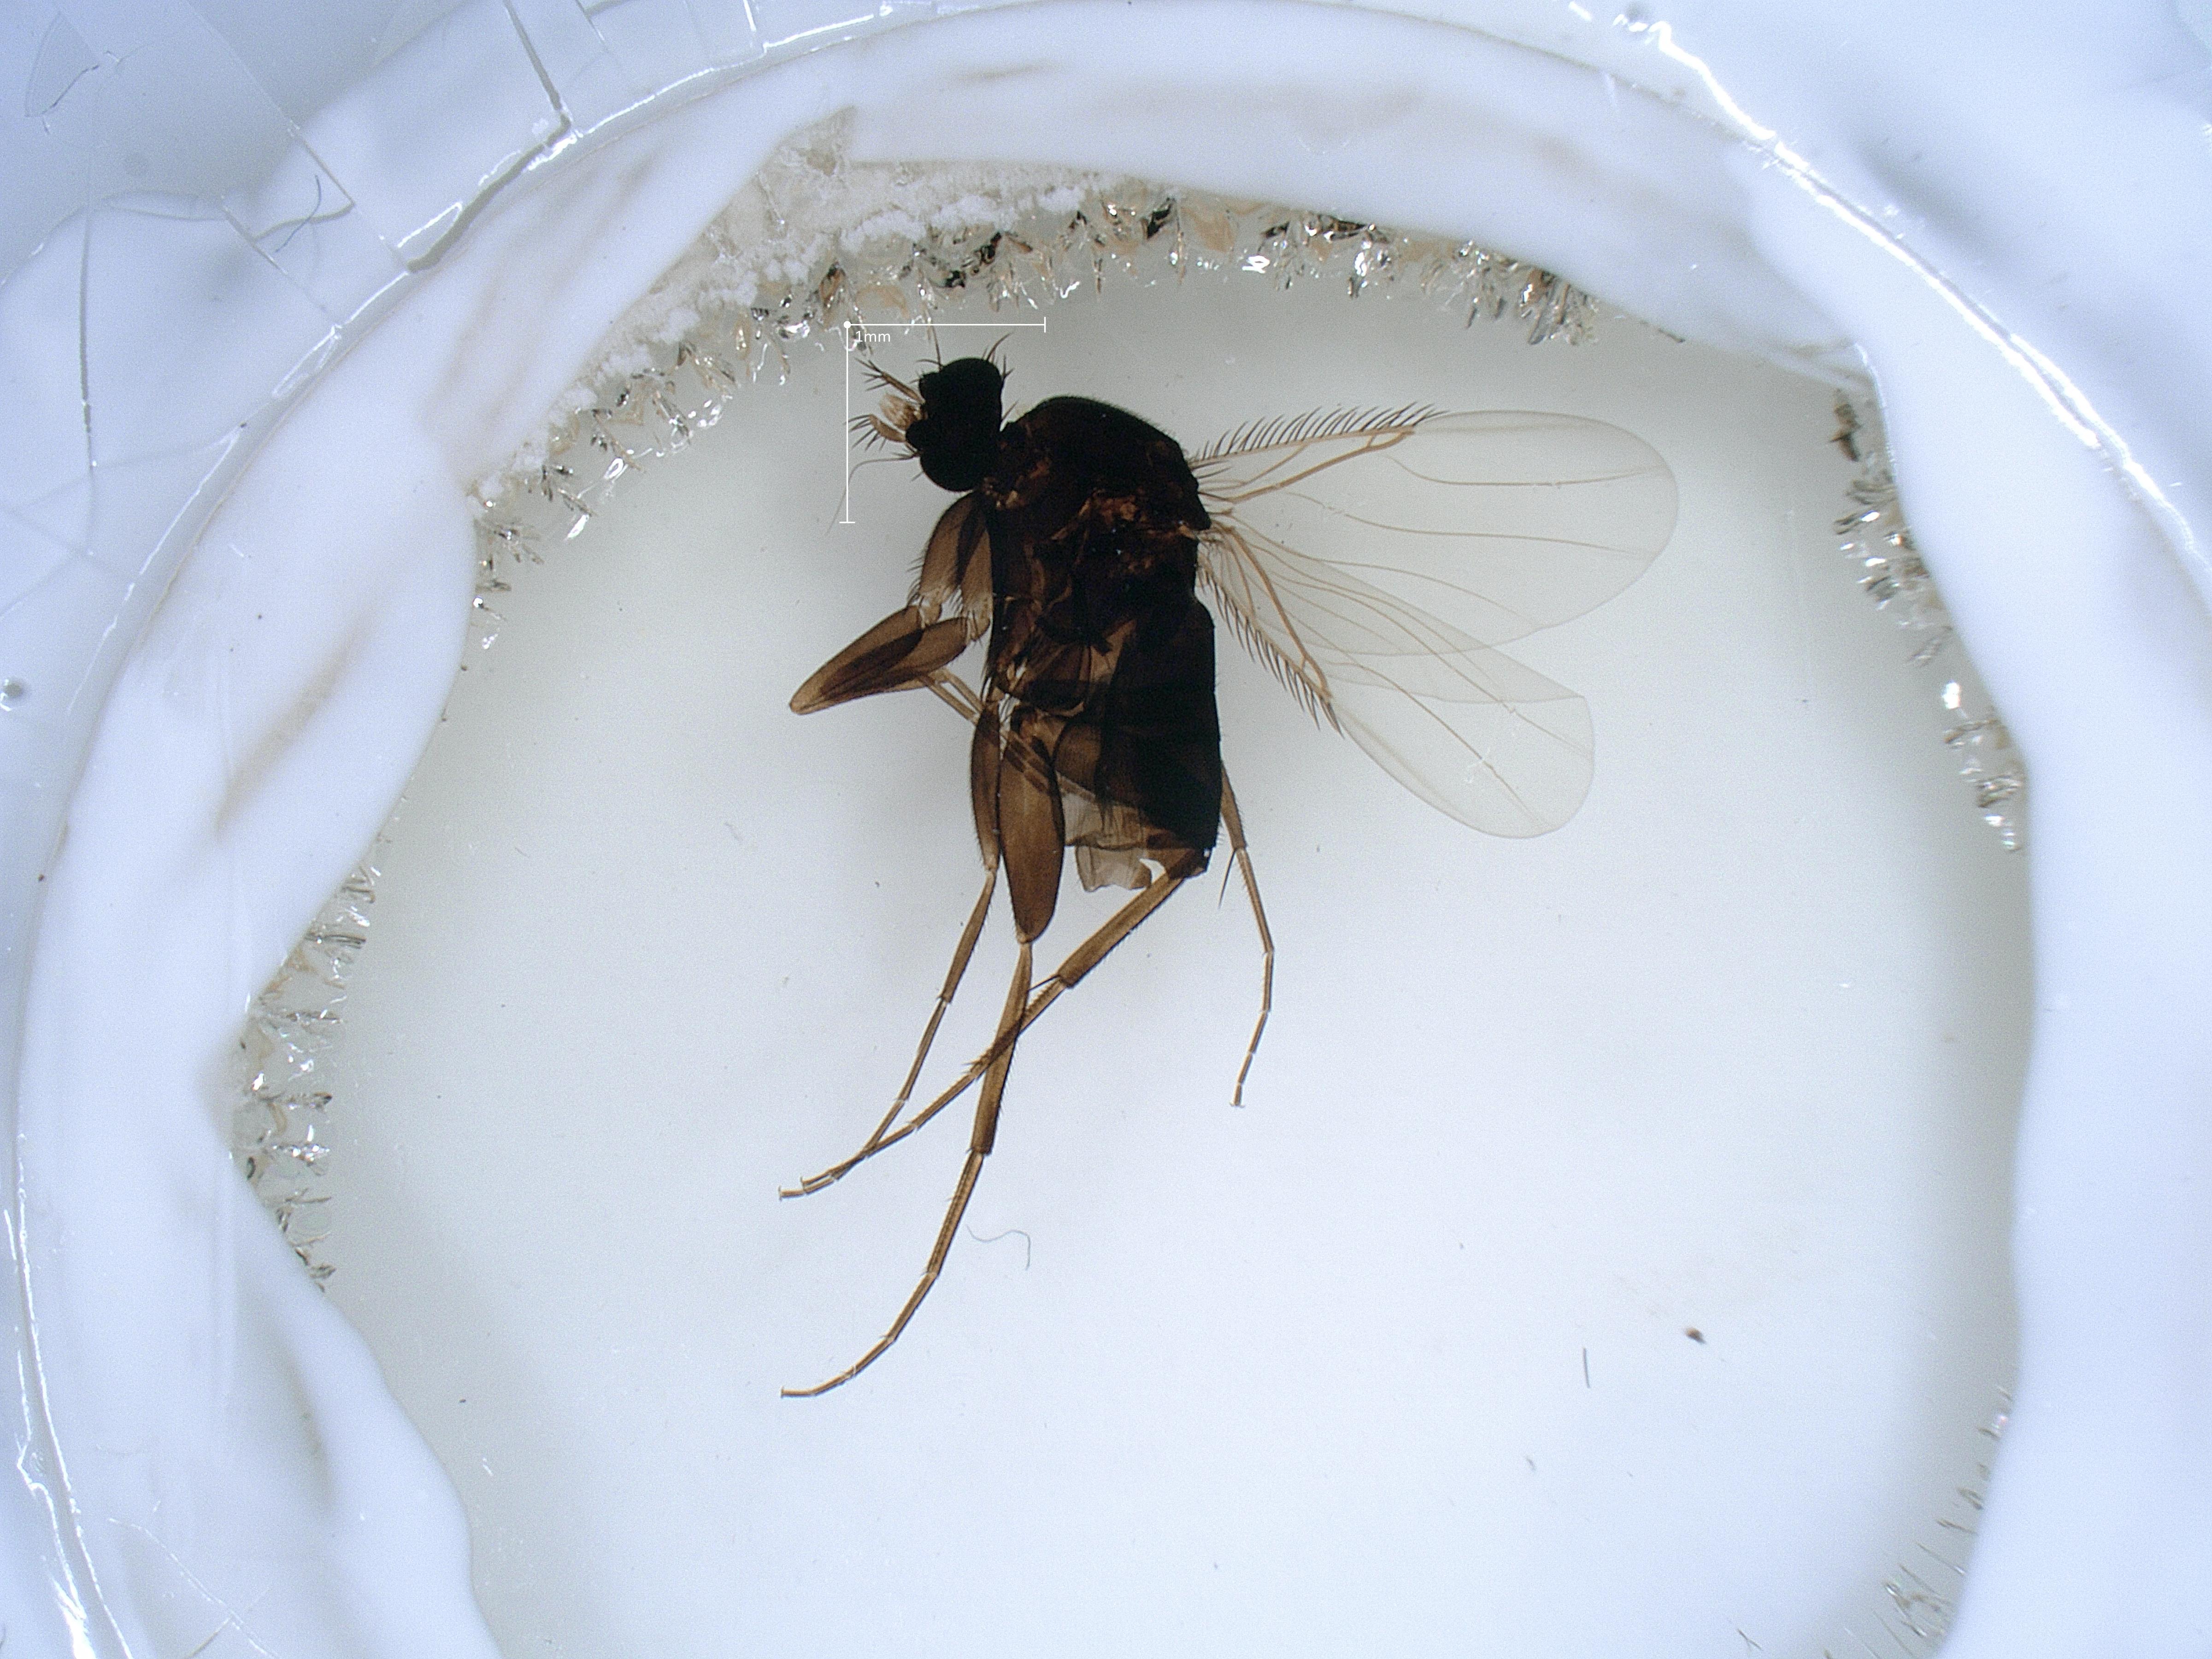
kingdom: Animalia
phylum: Arthropoda
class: Insecta
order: Diptera
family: Phoridae
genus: Megaselia
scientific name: Megaselia tenebricola
